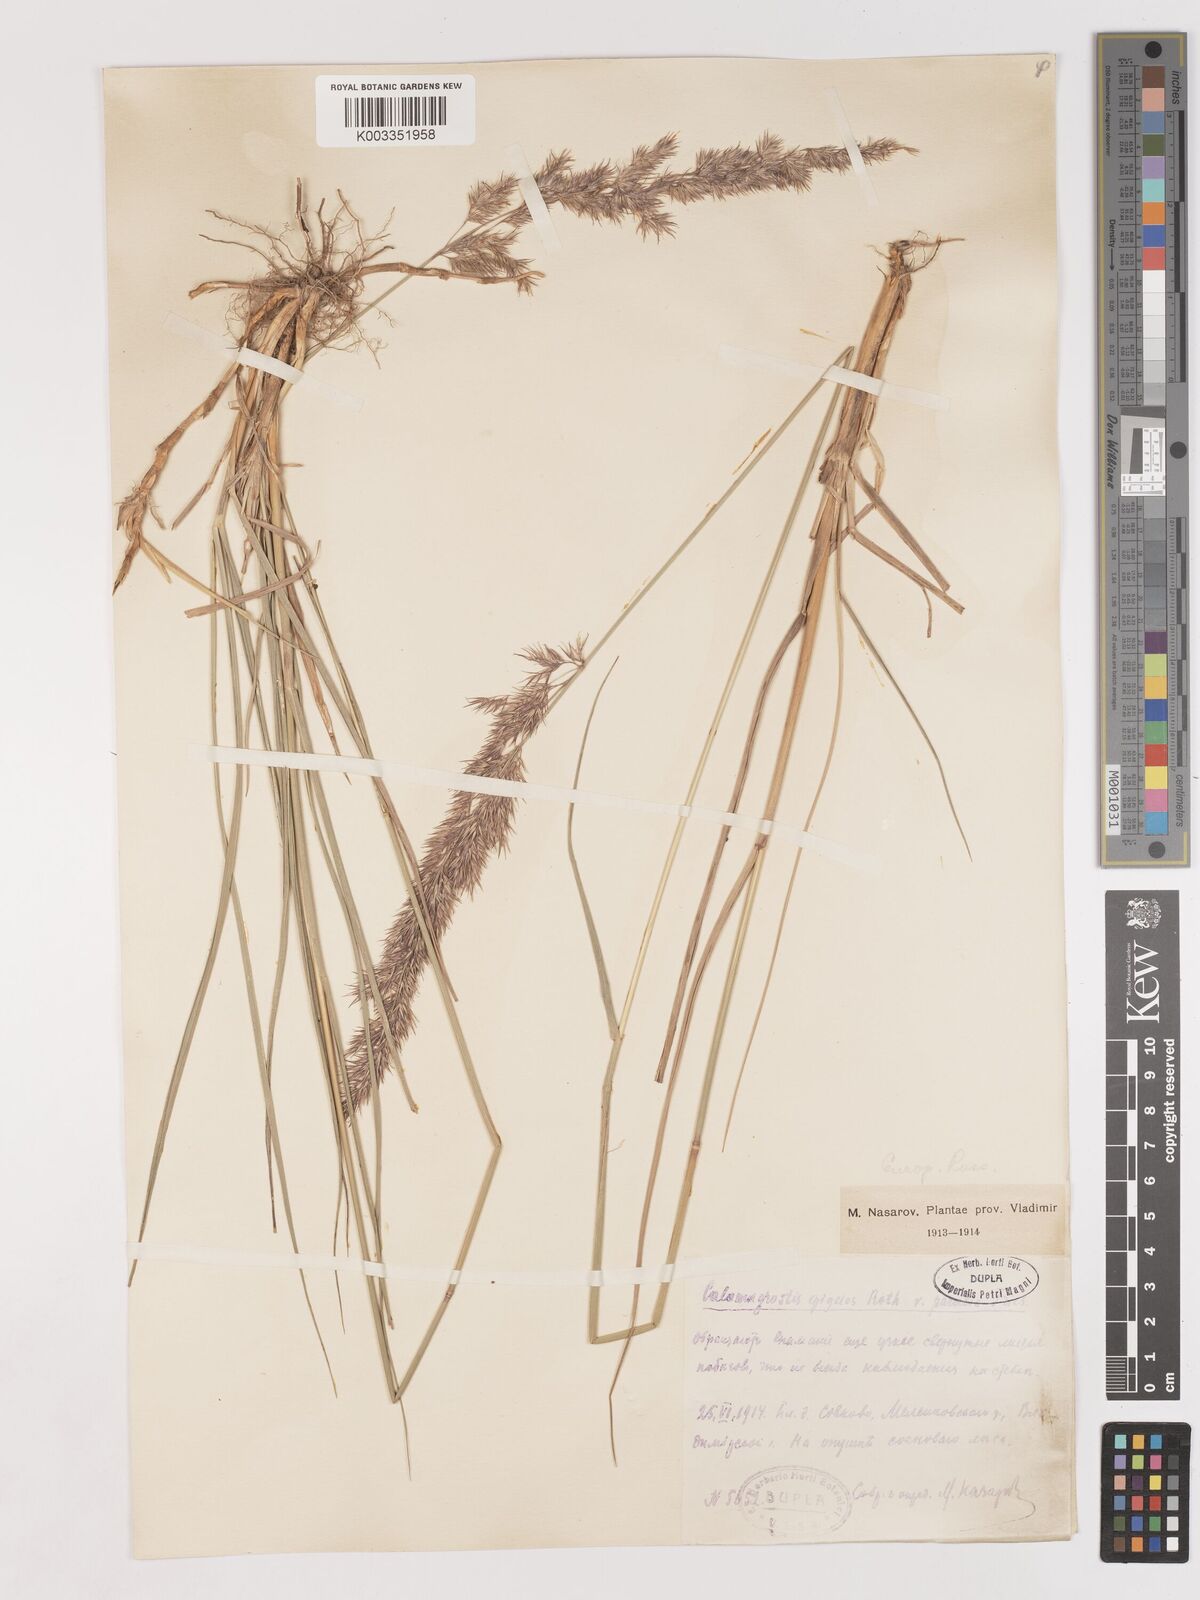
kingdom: Plantae
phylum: Tracheophyta
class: Liliopsida
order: Poales
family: Poaceae
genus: Calamagrostis
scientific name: Calamagrostis epigejos
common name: Wood small-reed
